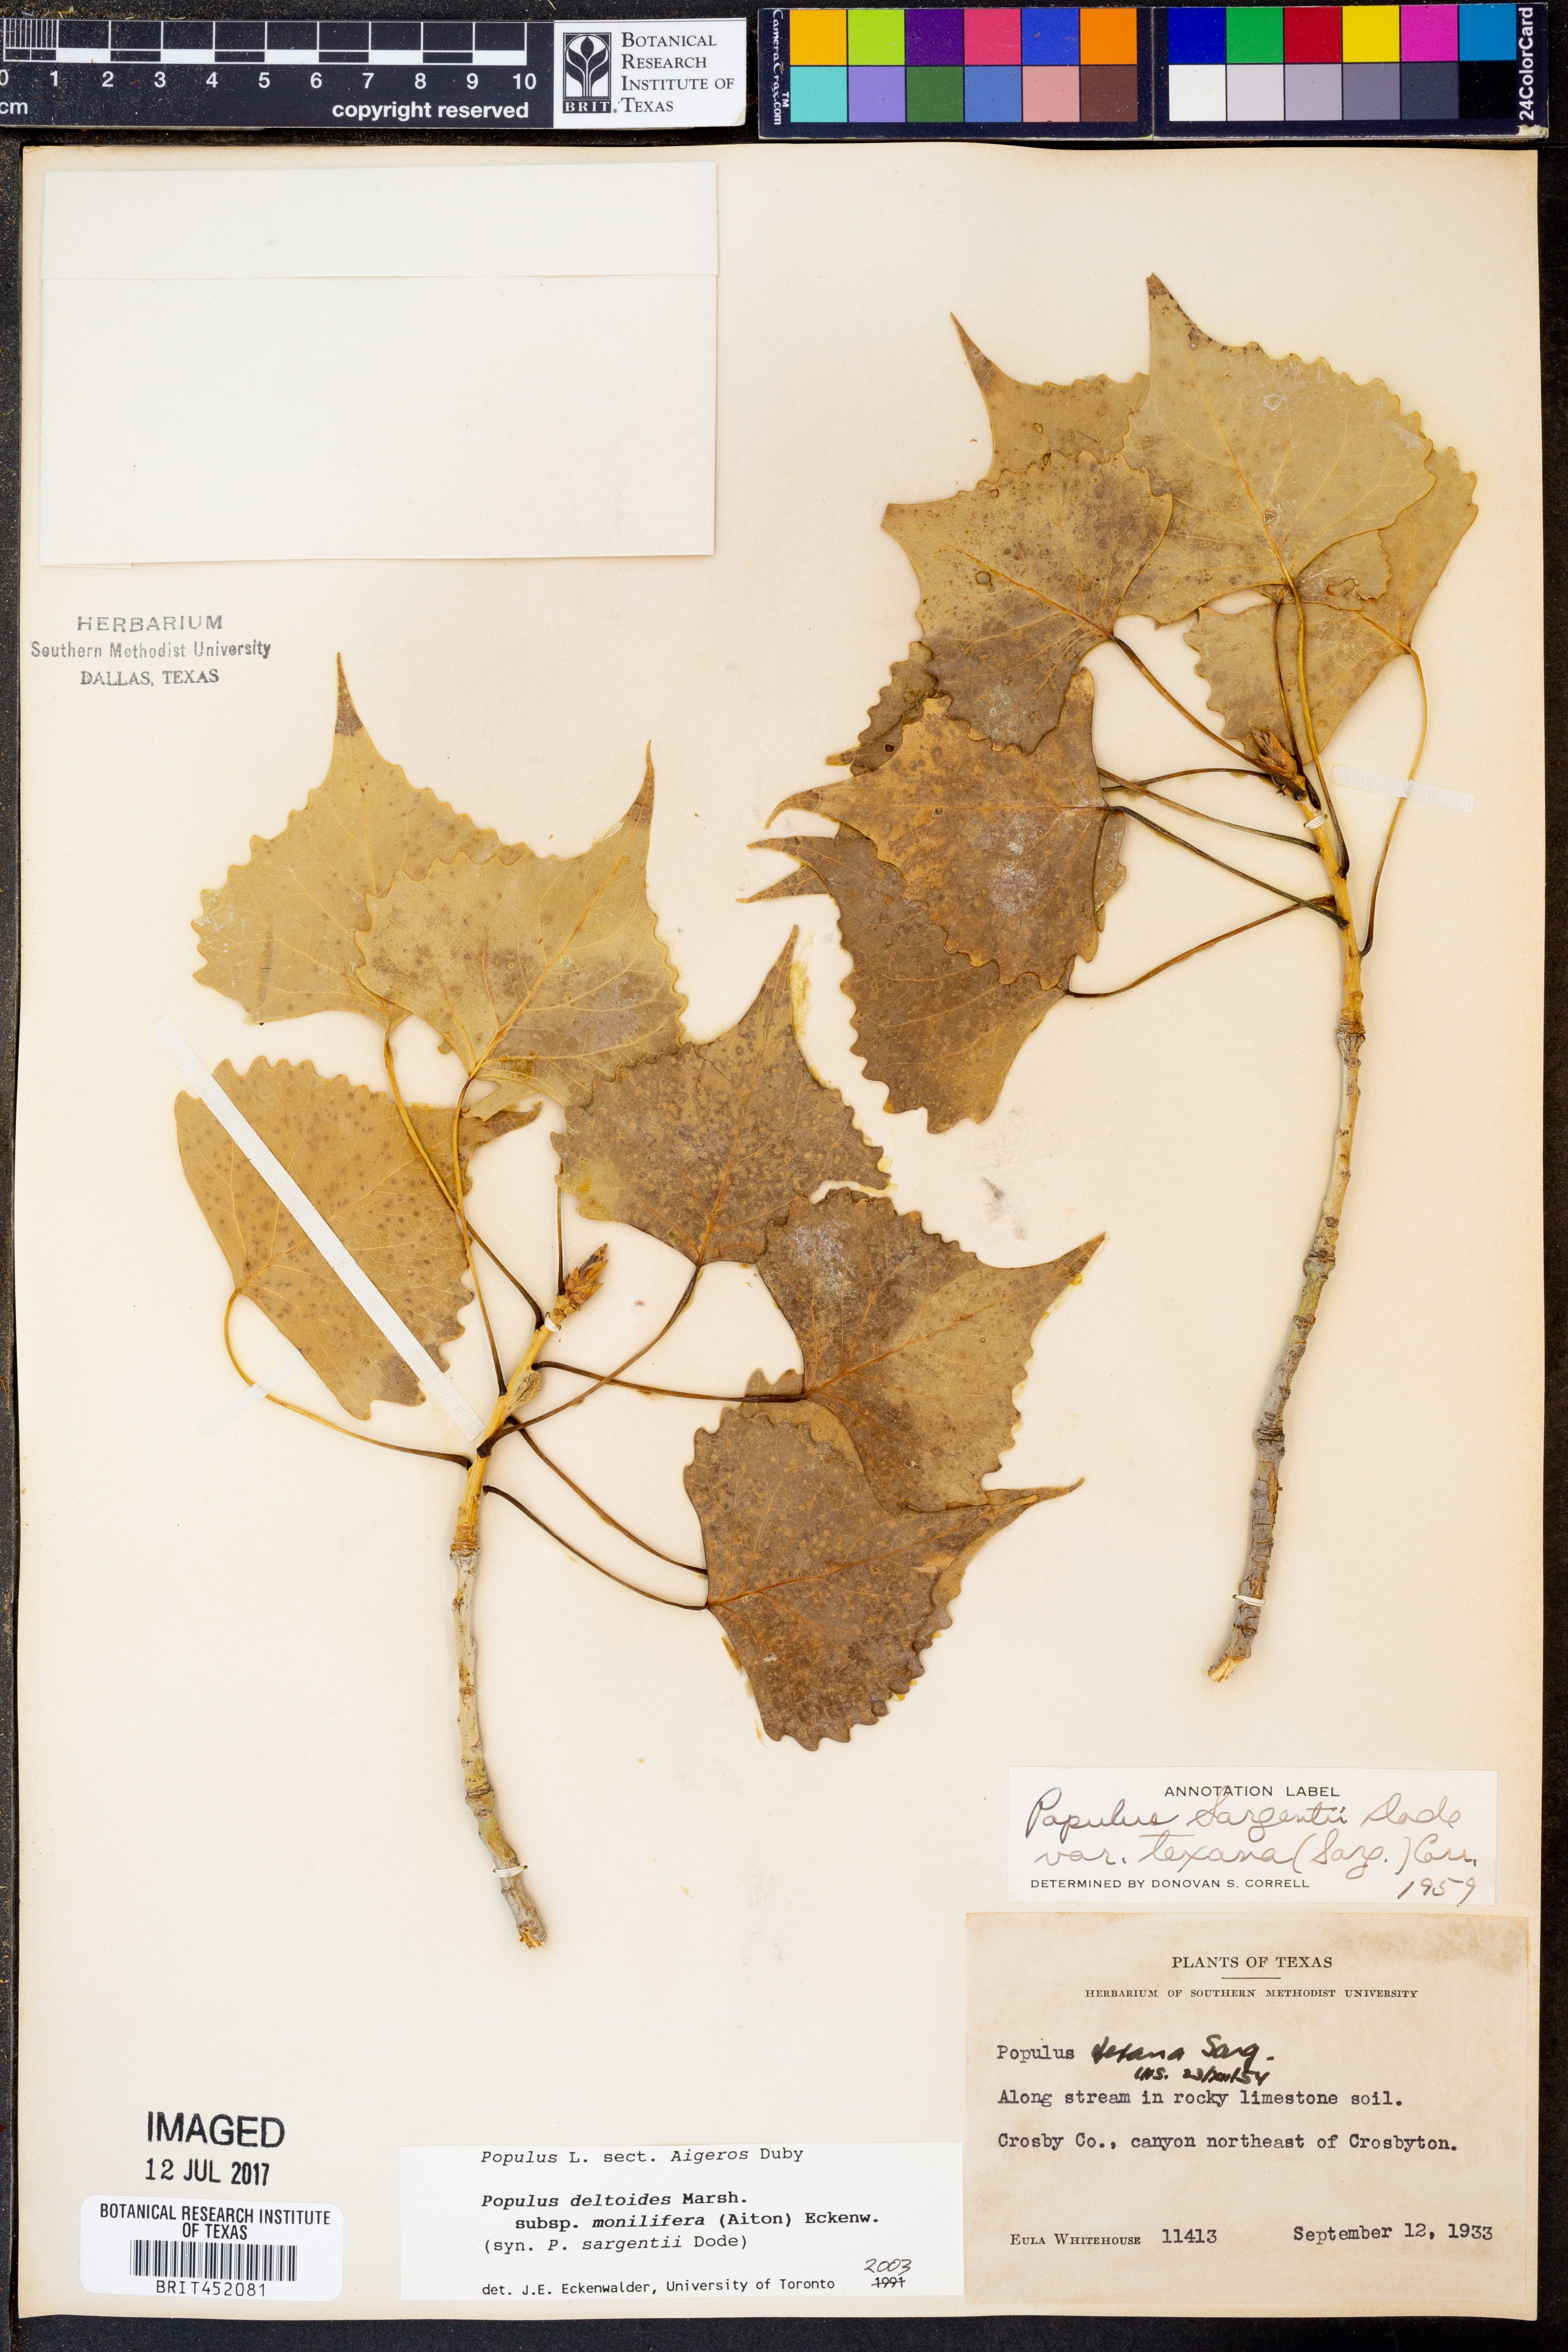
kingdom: Plantae
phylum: Tracheophyta
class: Magnoliopsida
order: Malpighiales
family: Salicaceae
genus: Populus
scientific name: Populus deltoides
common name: Eastern cottonwood
